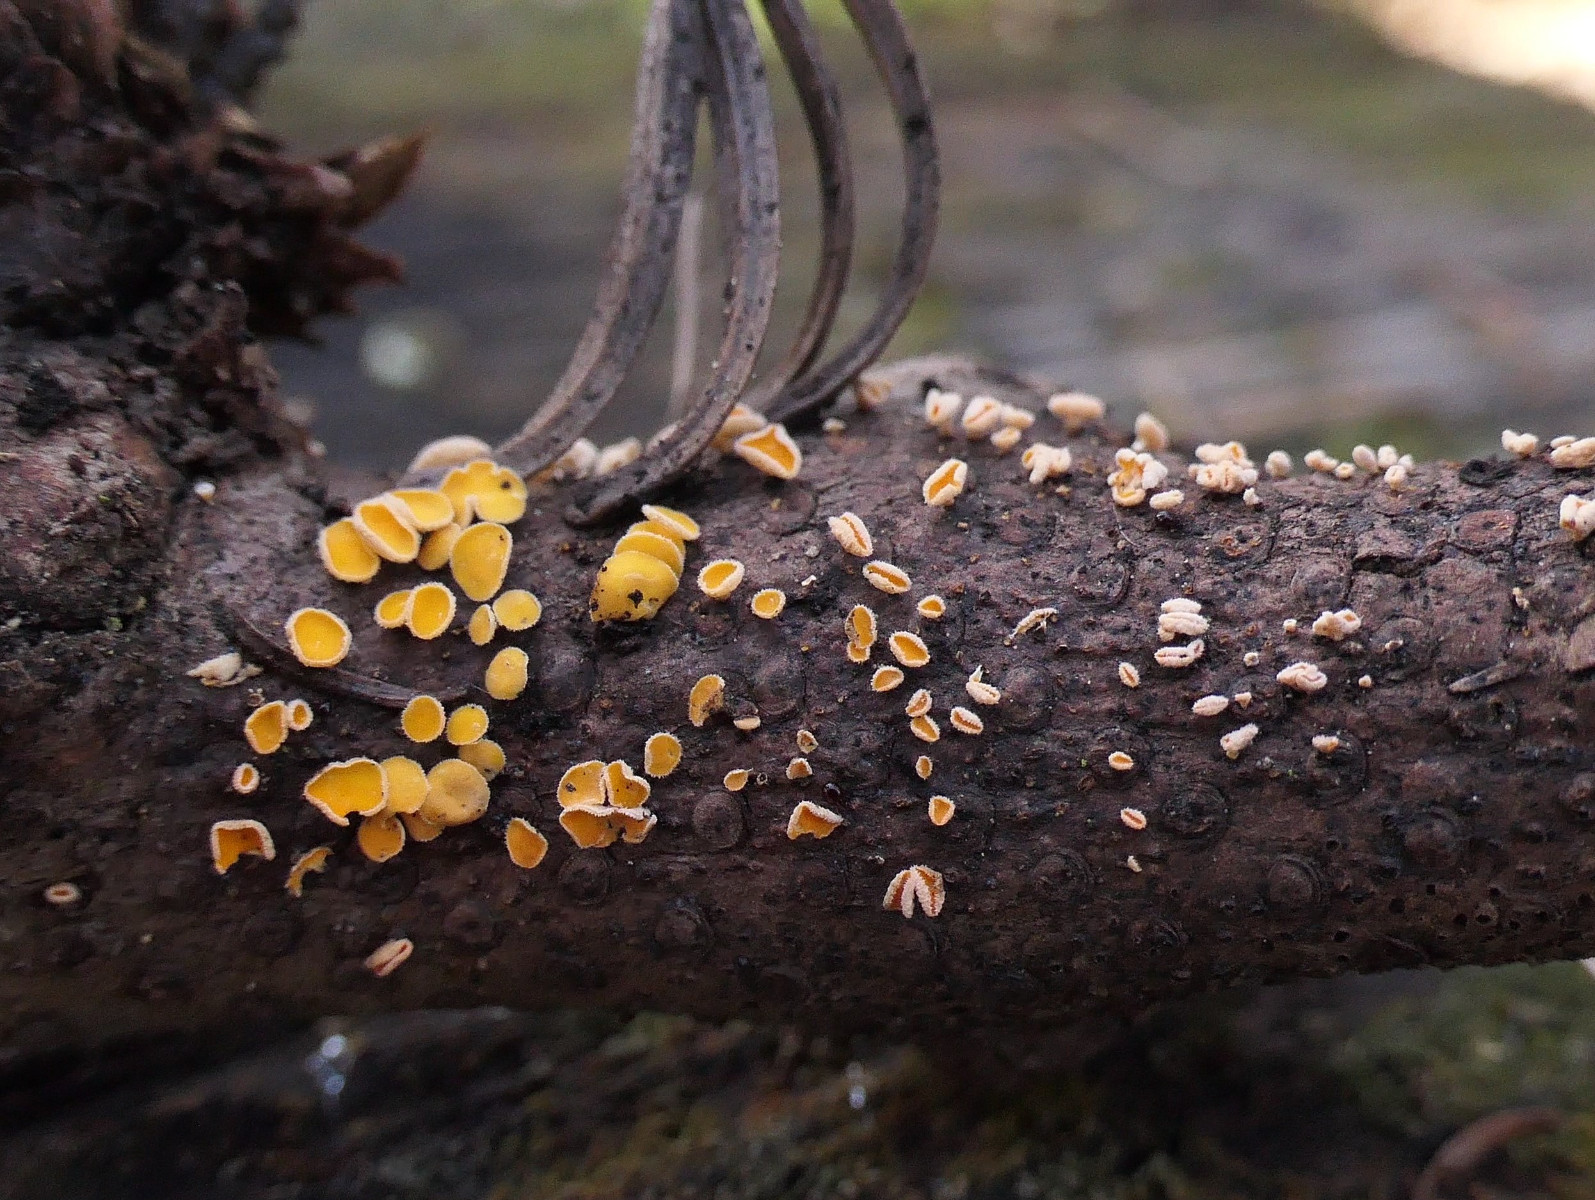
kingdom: Fungi
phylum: Ascomycota
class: Leotiomycetes
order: Helotiales
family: Lachnaceae
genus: Lachnellula
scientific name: Lachnellula subtilissima
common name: gran-frynseskive
